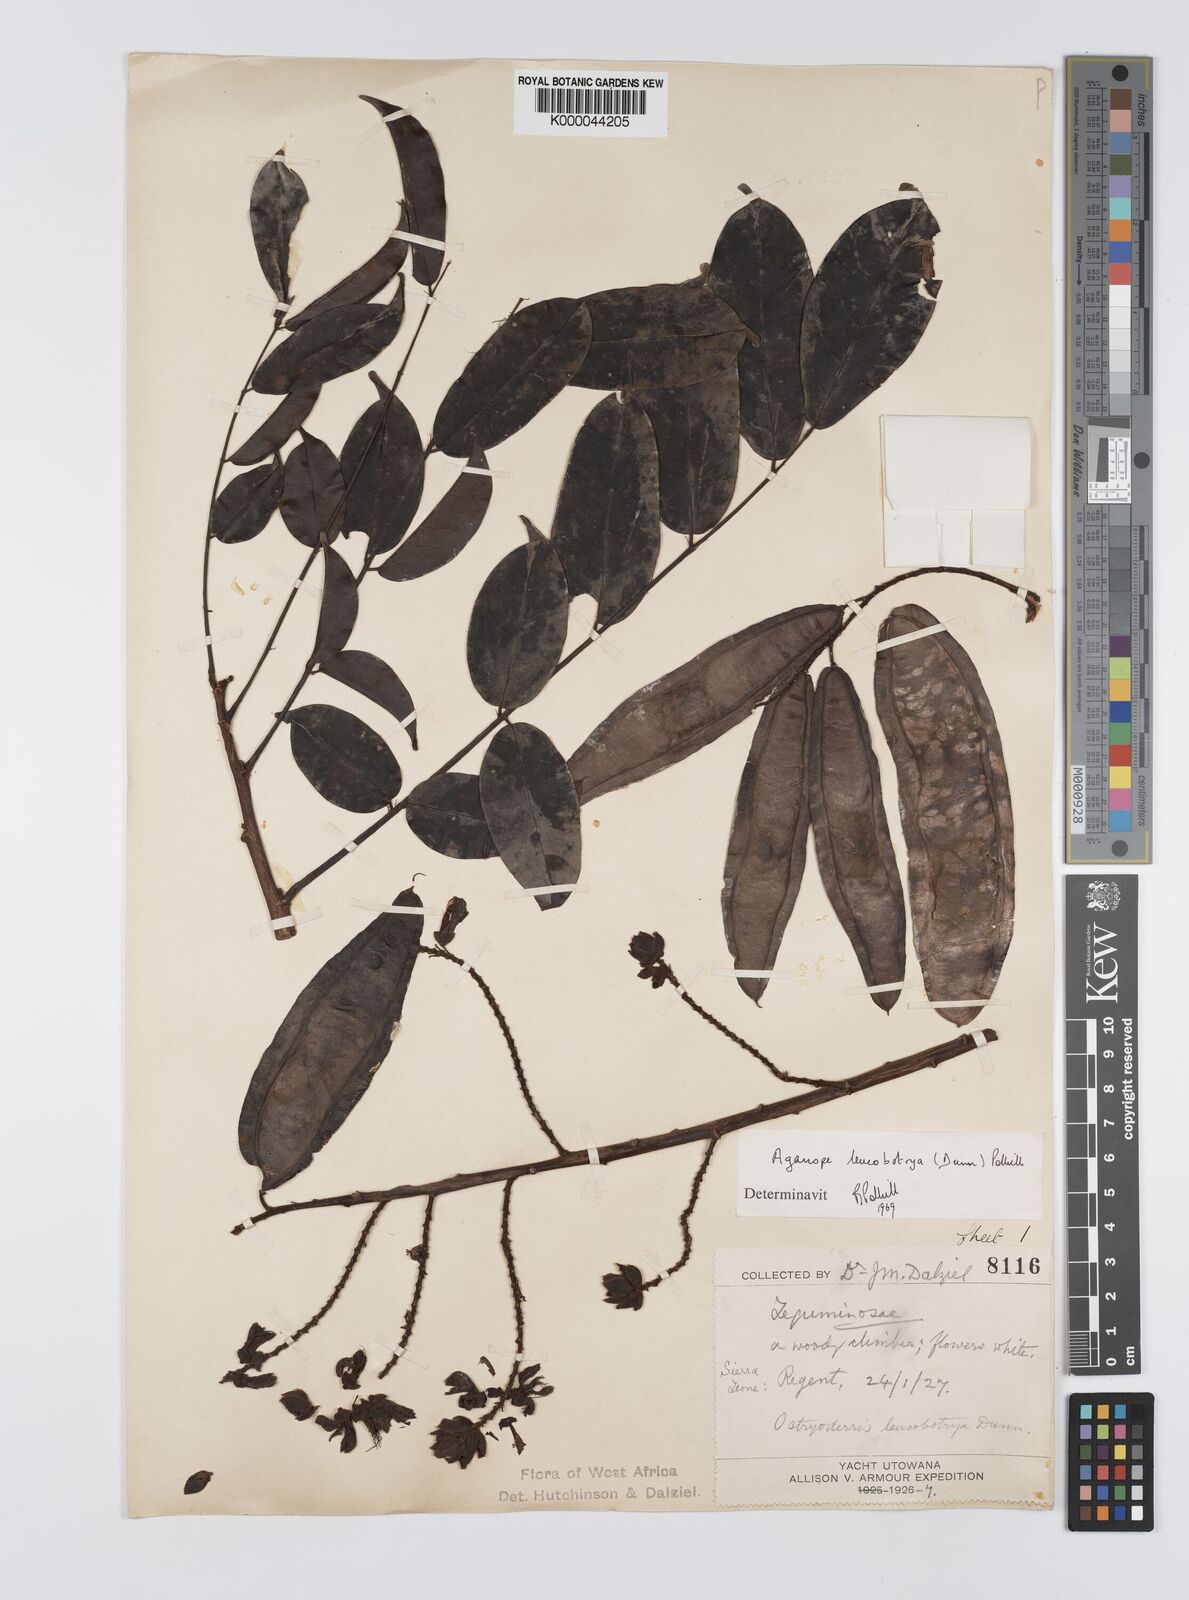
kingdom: Plantae
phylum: Tracheophyta
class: Magnoliopsida
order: Fabales
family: Fabaceae
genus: Aganope
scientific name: Aganope leucobotrya
